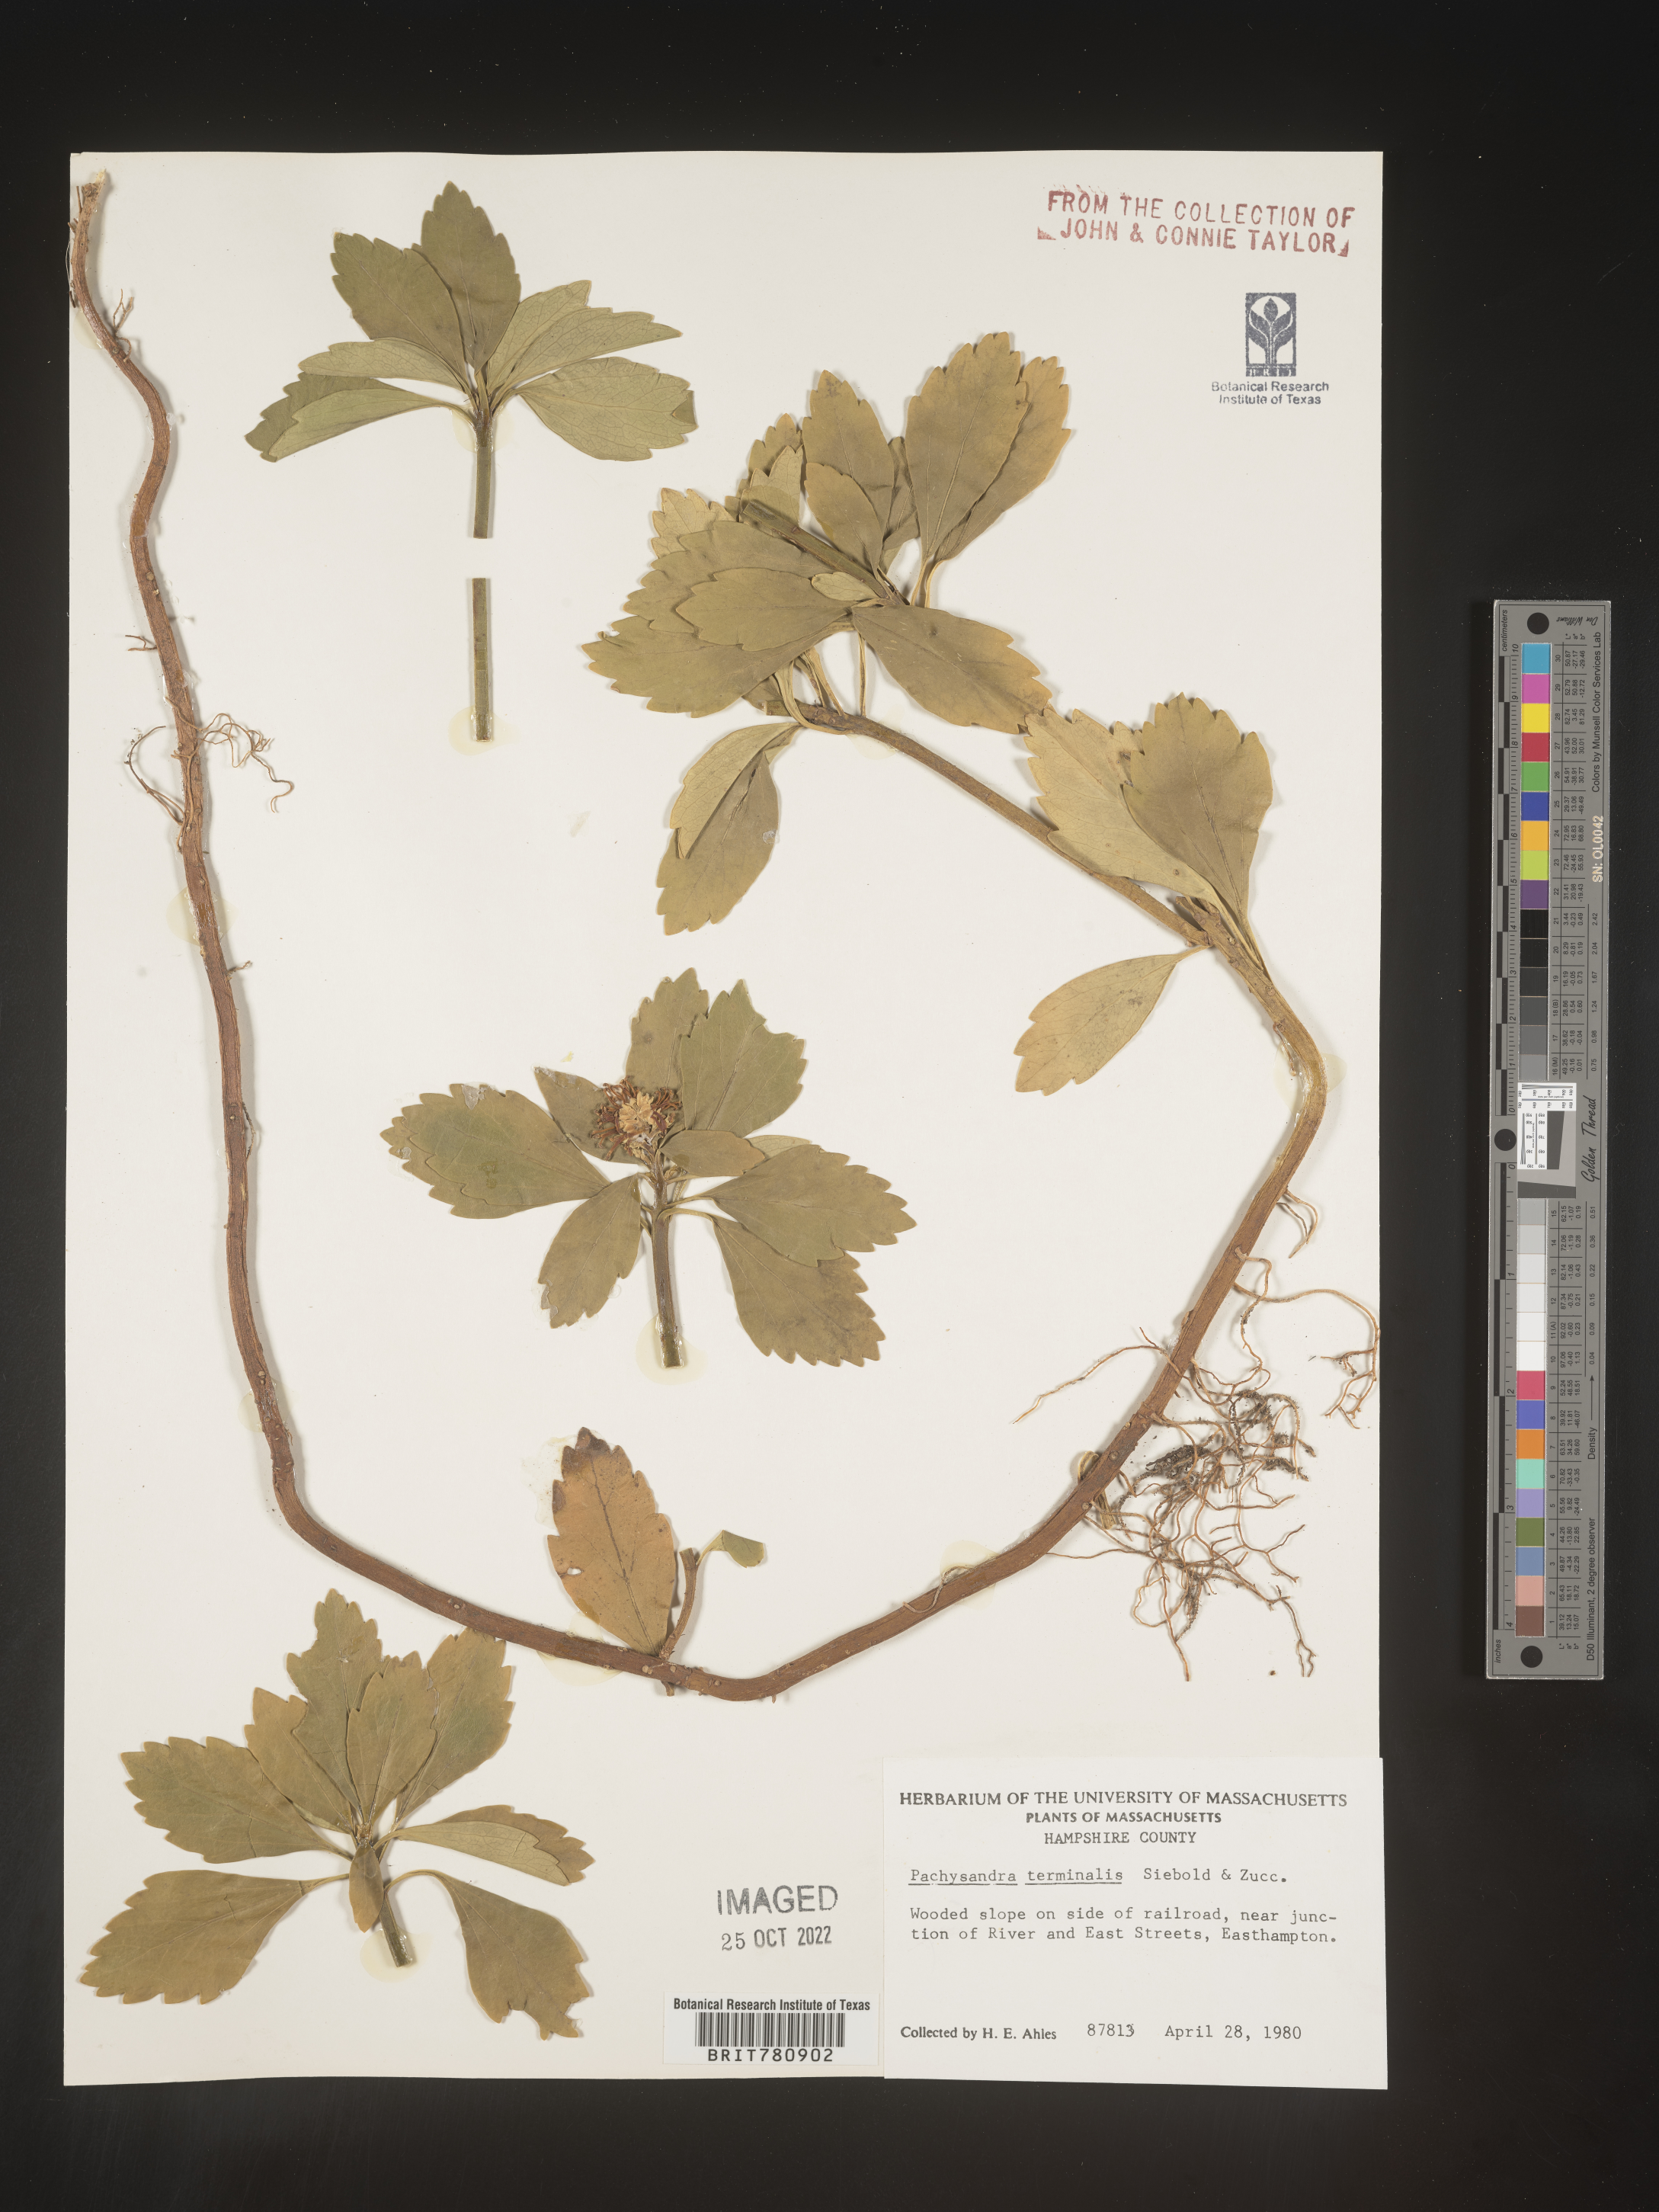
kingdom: Plantae
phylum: Tracheophyta
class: Magnoliopsida
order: Buxales
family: Buxaceae
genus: Pachysandra
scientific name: Pachysandra
